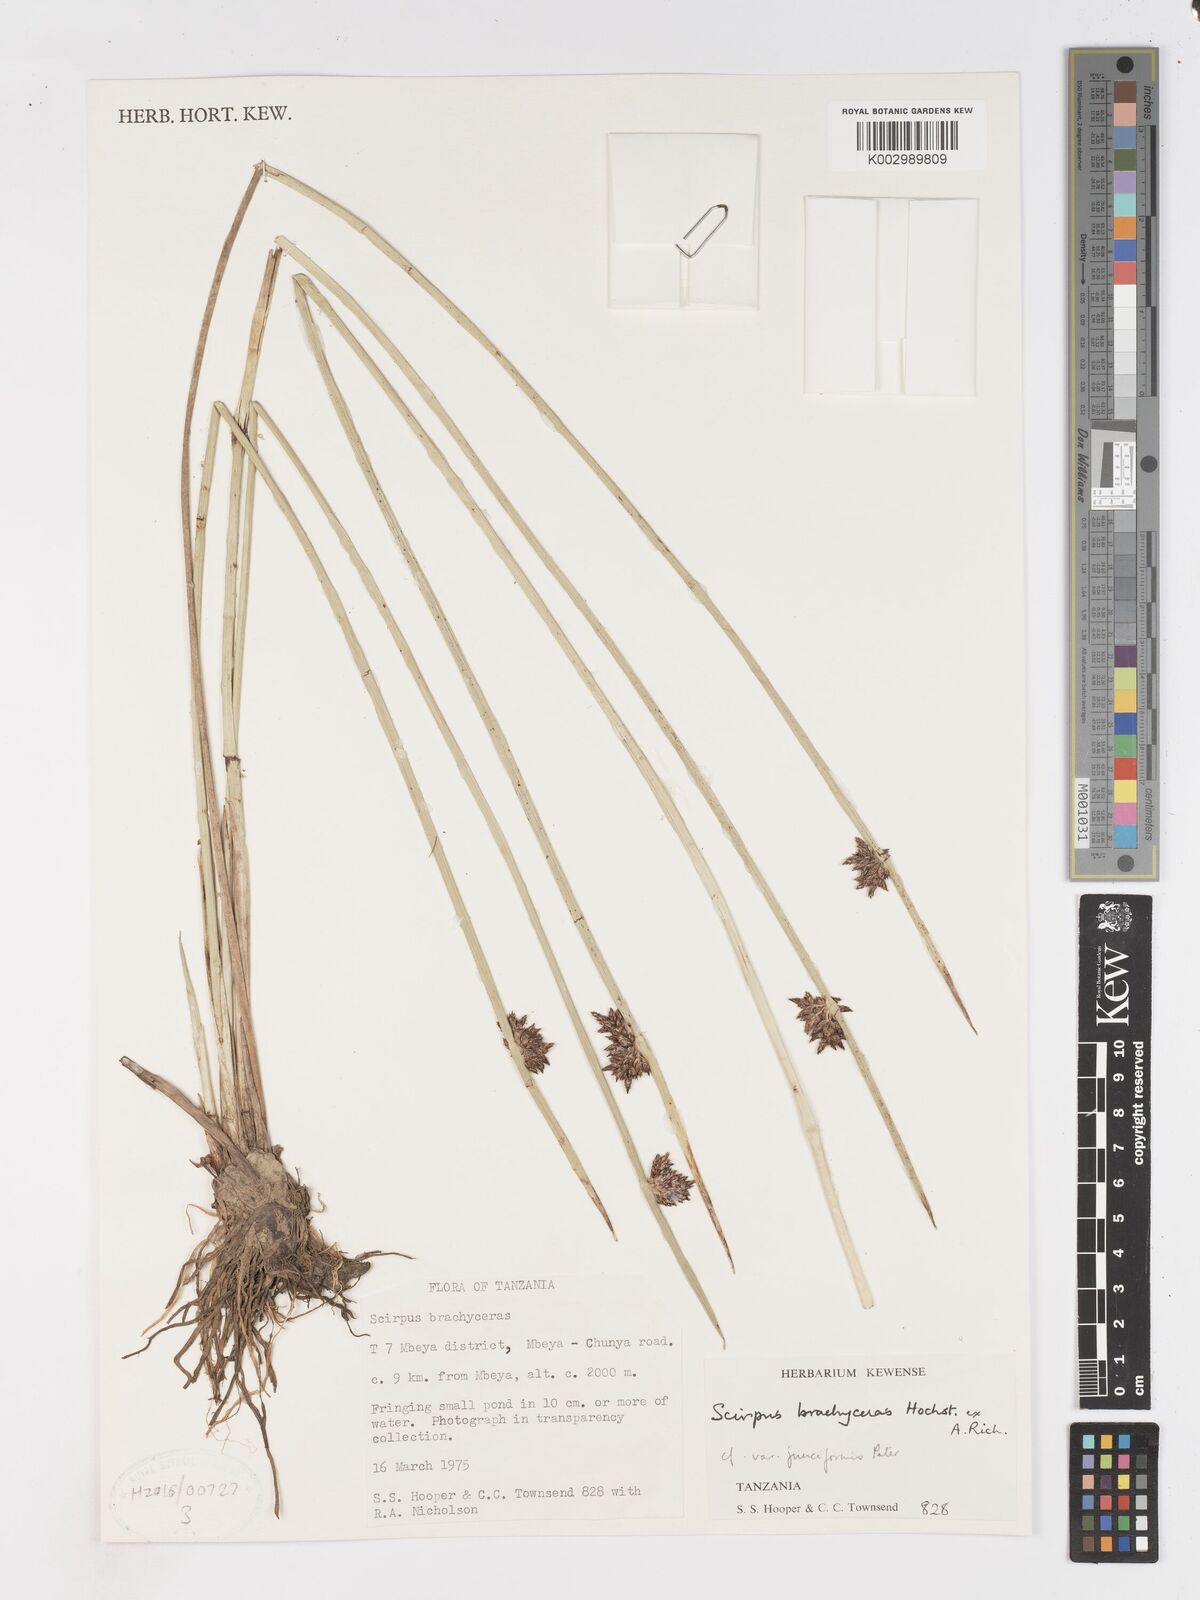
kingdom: Plantae
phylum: Tracheophyta
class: Liliopsida
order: Poales
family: Cyperaceae
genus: Schoenoplectiella
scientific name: Schoenoplectiella brachyceras
